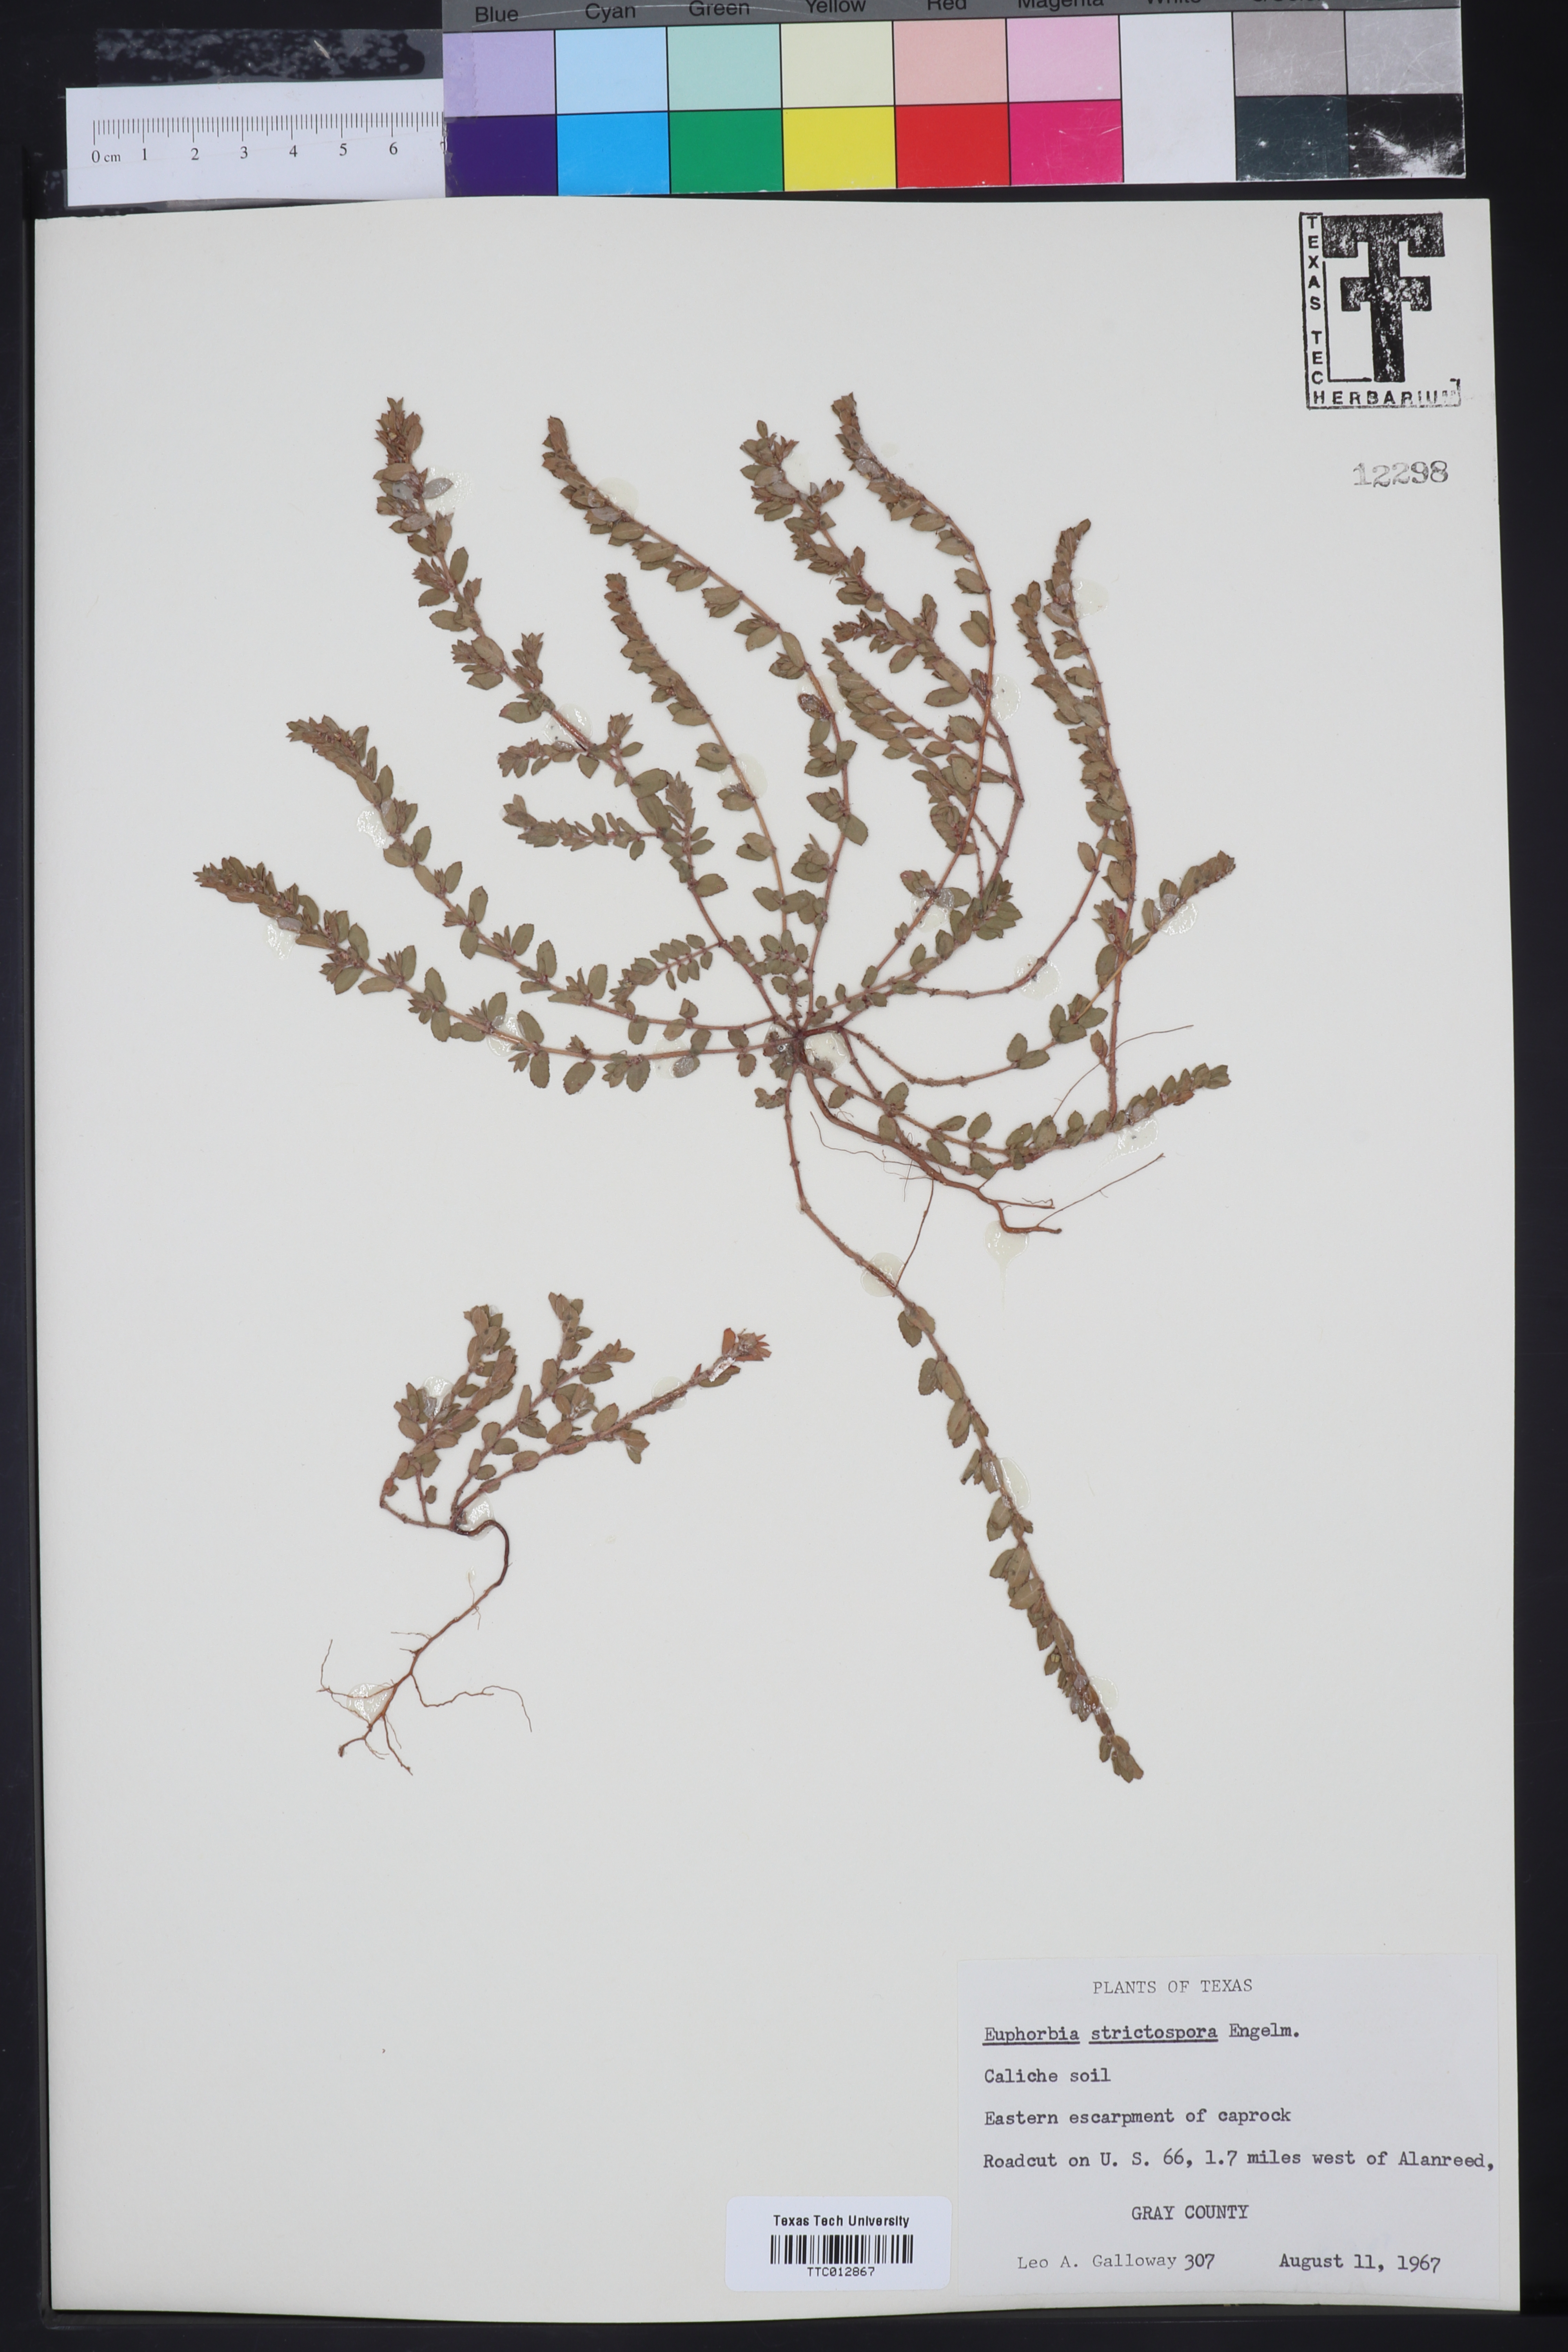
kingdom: Plantae
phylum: Tracheophyta
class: Magnoliopsida
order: Malpighiales
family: Euphorbiaceae
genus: Euphorbia
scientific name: Euphorbia
